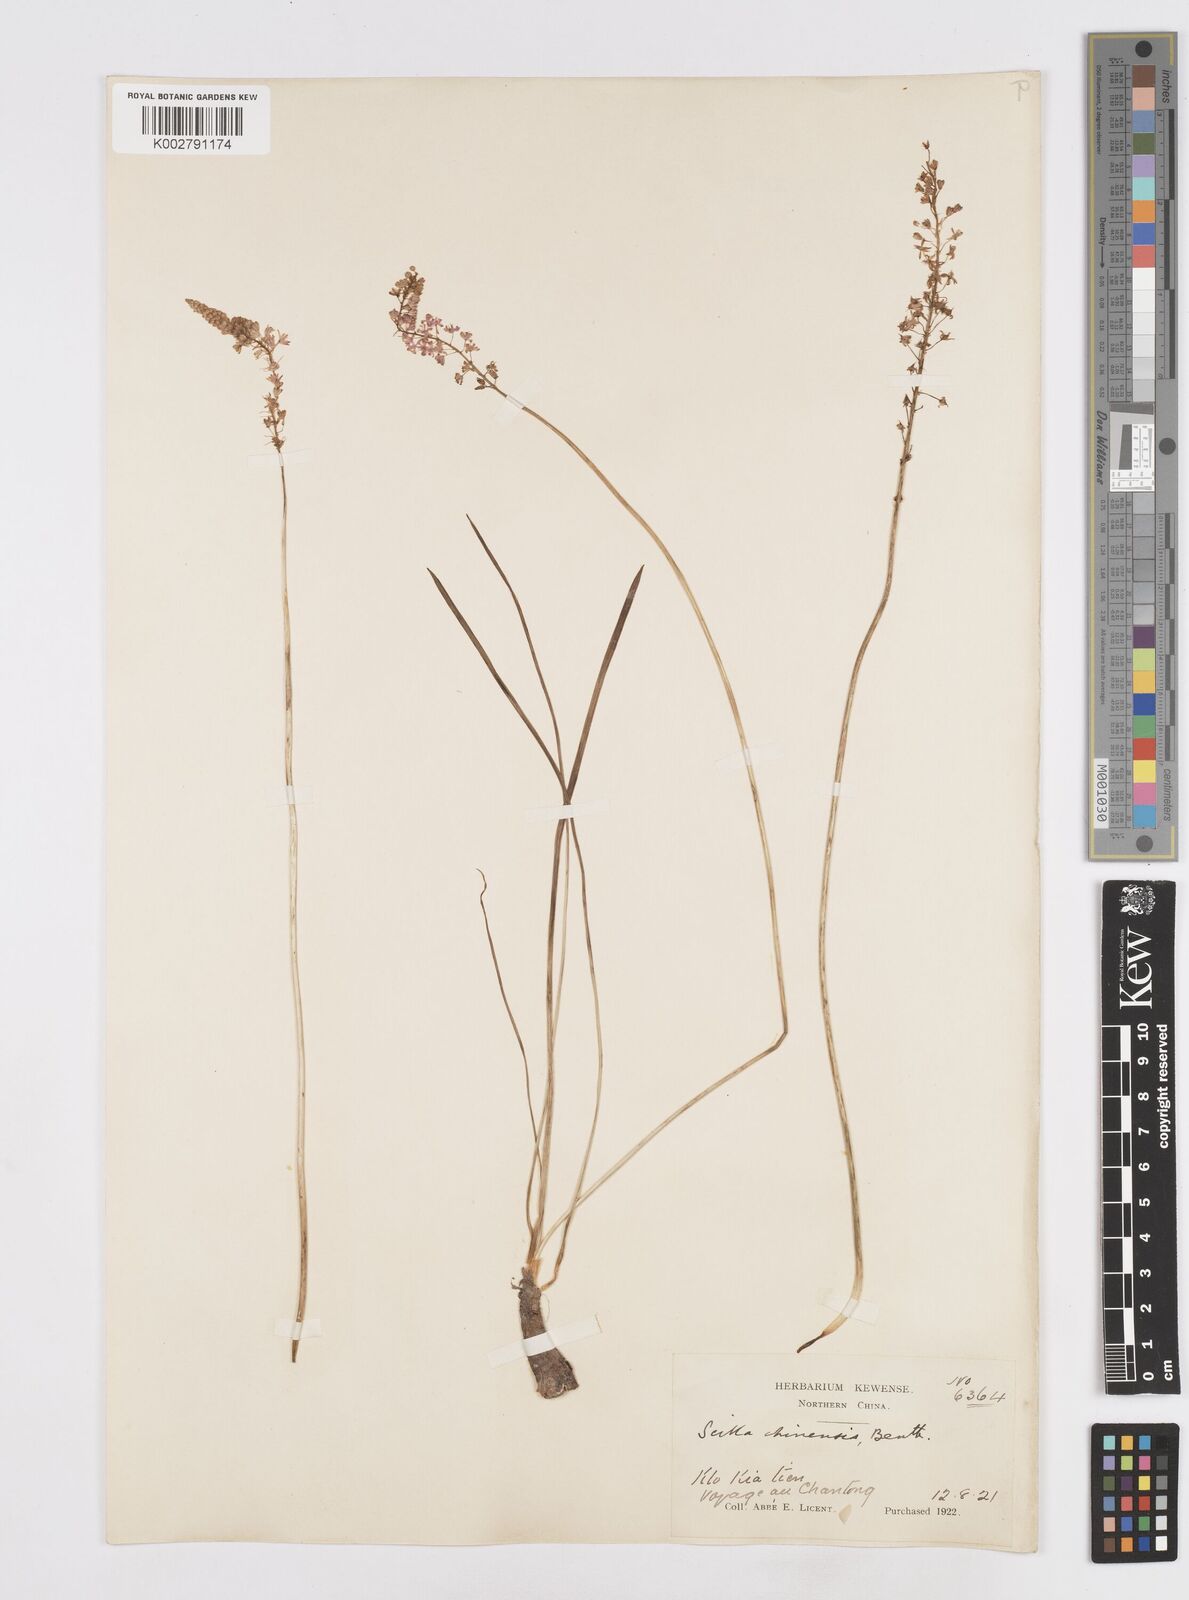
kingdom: Plantae
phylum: Tracheophyta
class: Liliopsida
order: Asparagales
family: Asparagaceae
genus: Barnardia
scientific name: Barnardia japonica
